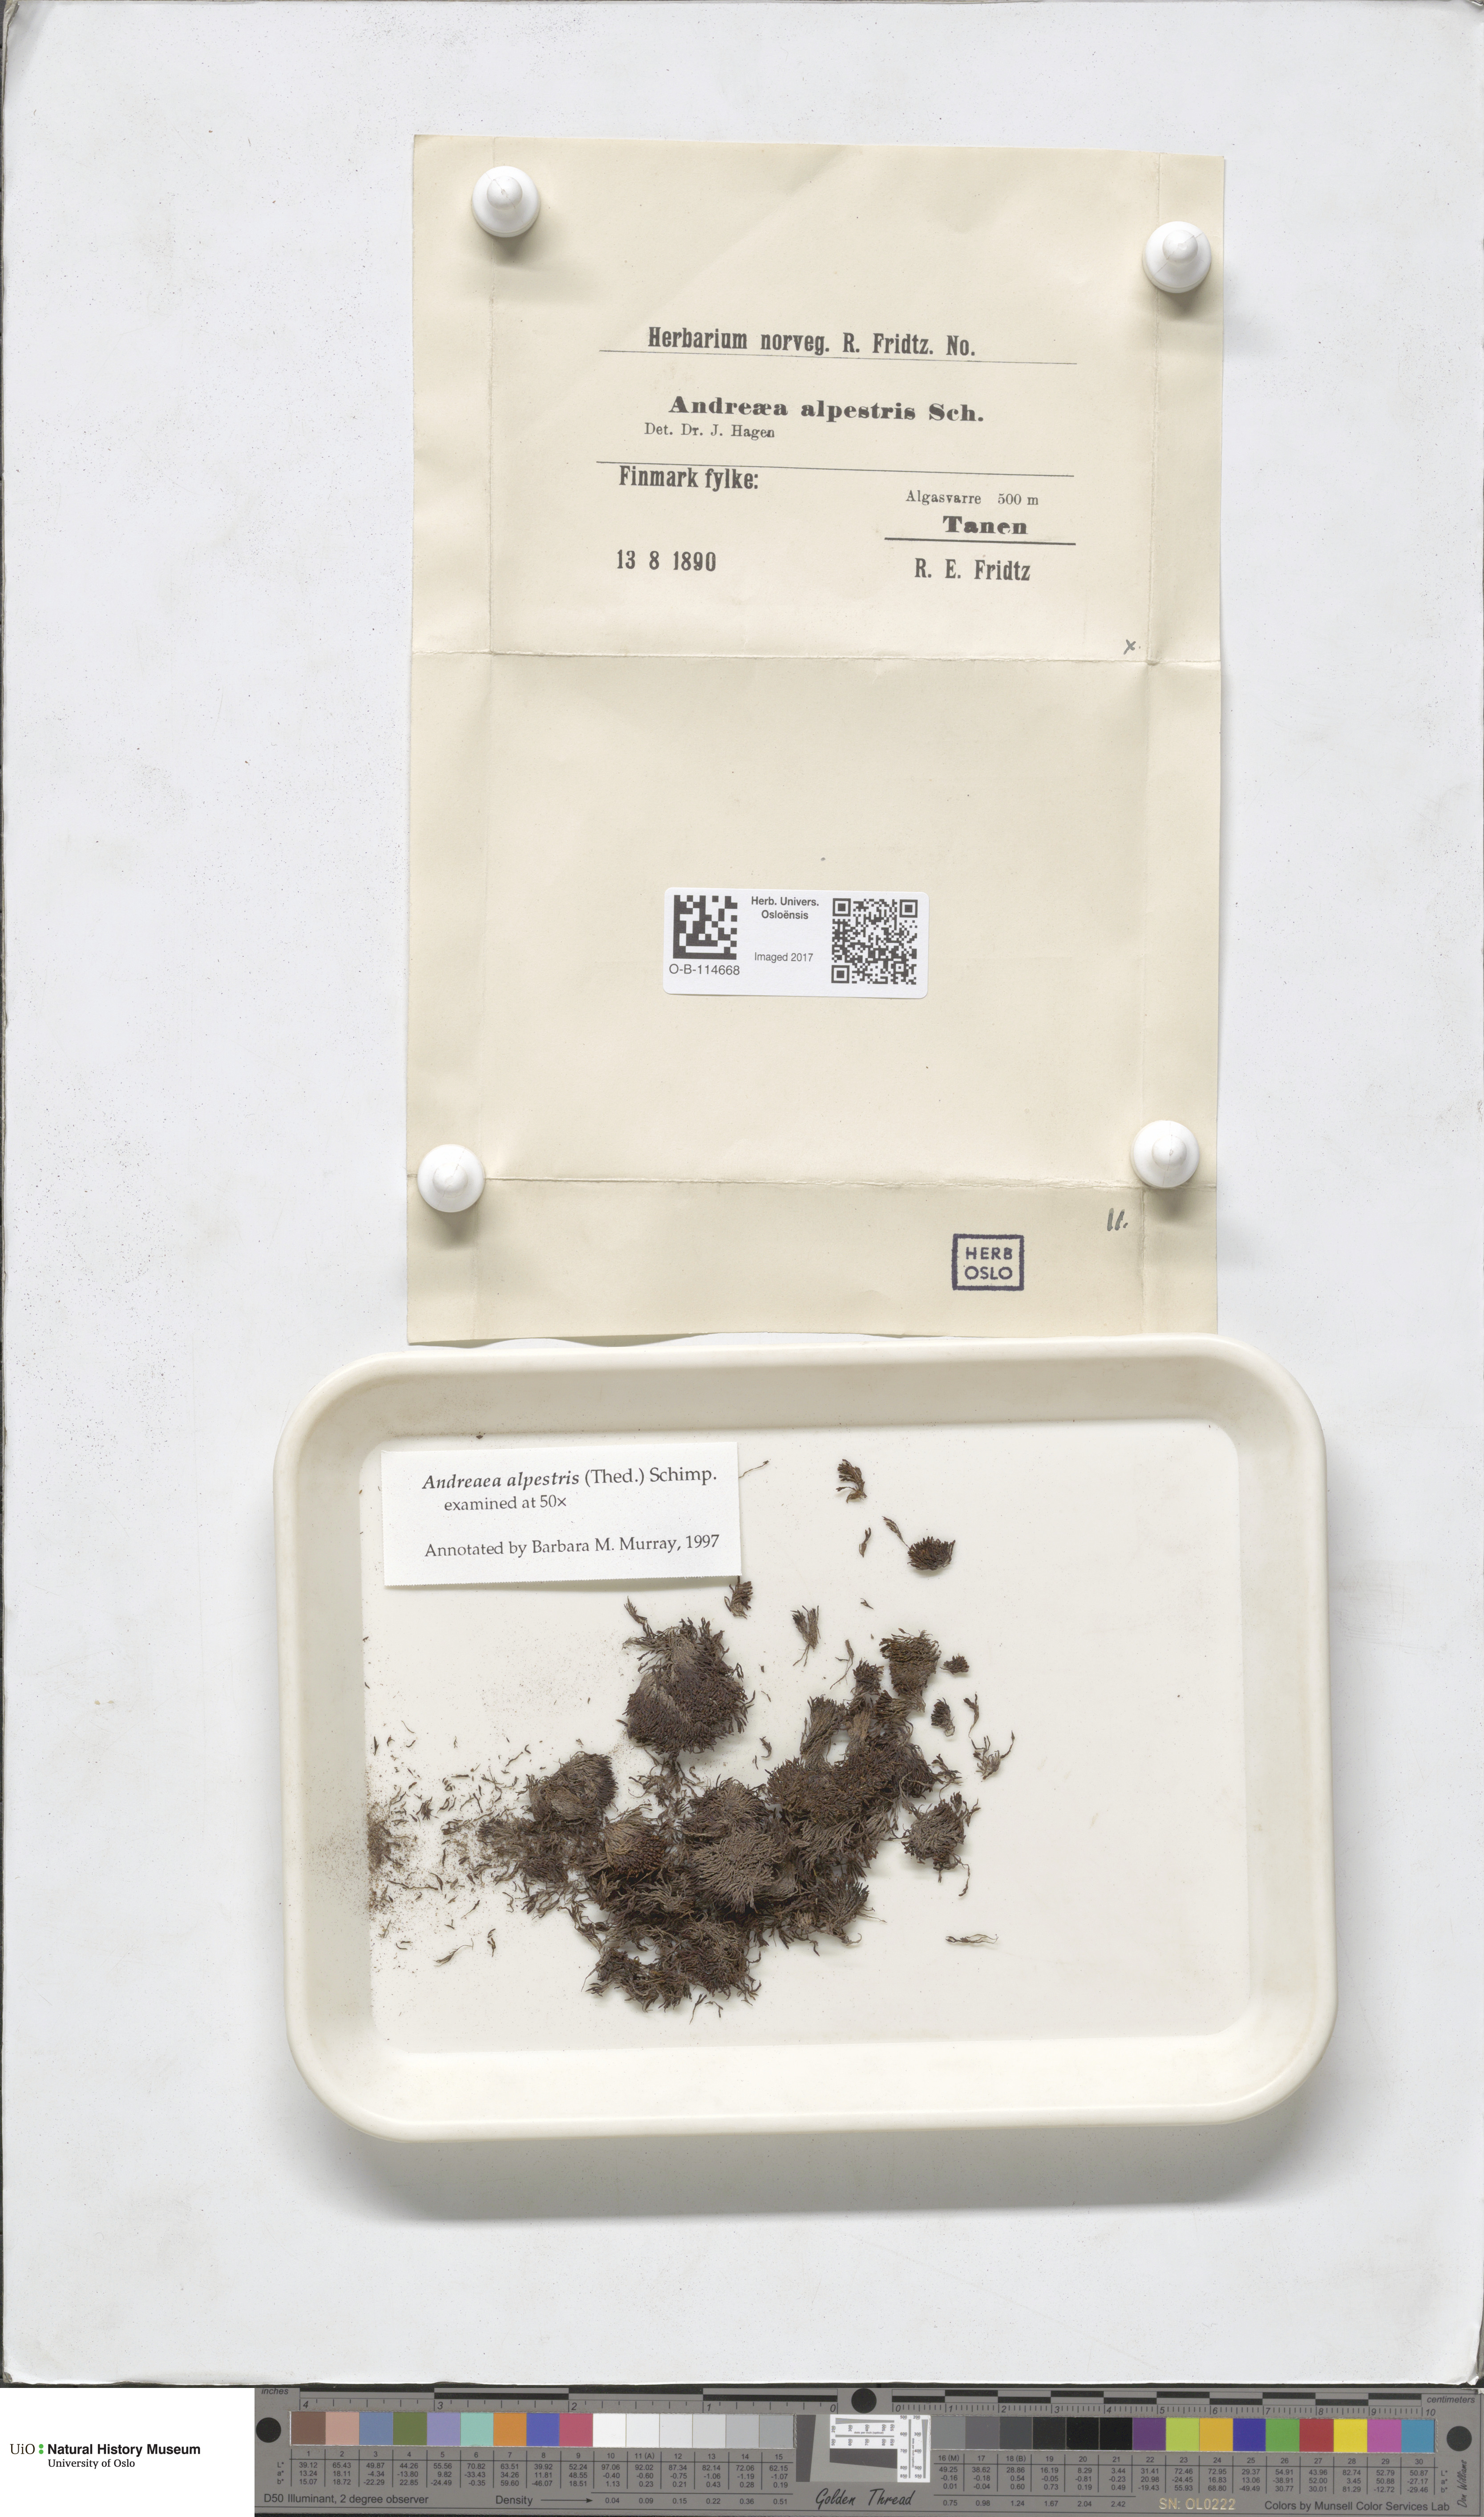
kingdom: Plantae
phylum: Bryophyta
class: Andreaeopsida
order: Andreaeales
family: Andreaeaceae
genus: Andreaea
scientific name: Andreaea alpestris
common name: Slender rock-moss
